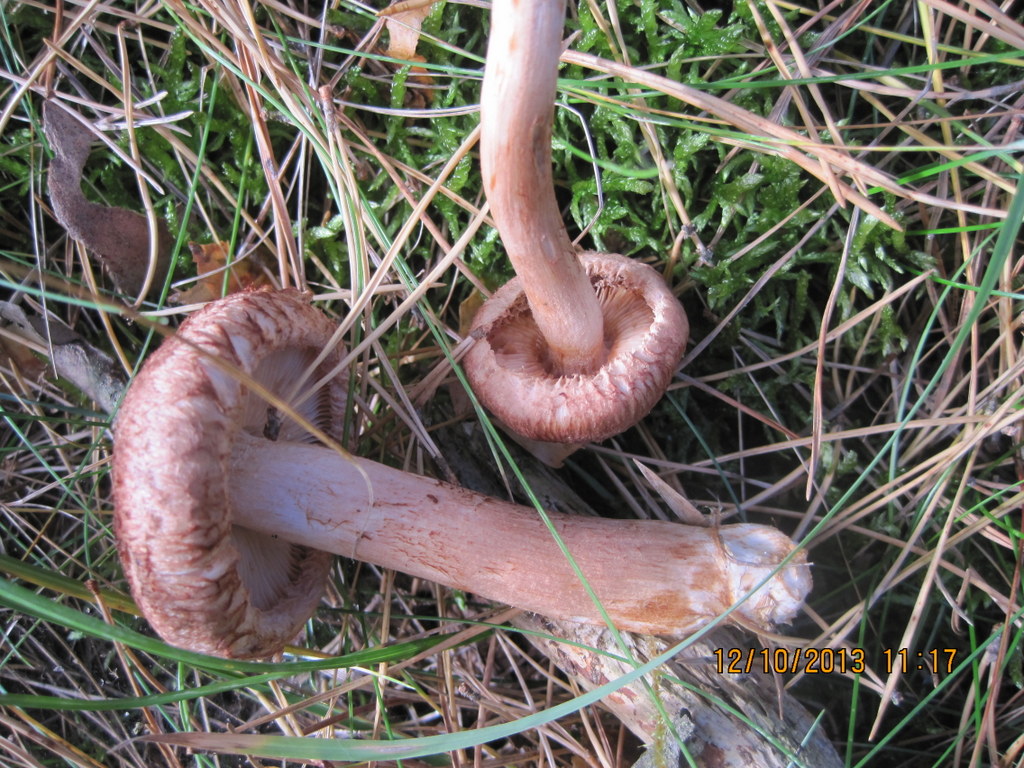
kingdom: Fungi
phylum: Basidiomycota
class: Agaricomycetes
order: Agaricales
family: Tricholomataceae
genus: Tricholoma
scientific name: Tricholoma vaccinum
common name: ko-ridderhat
